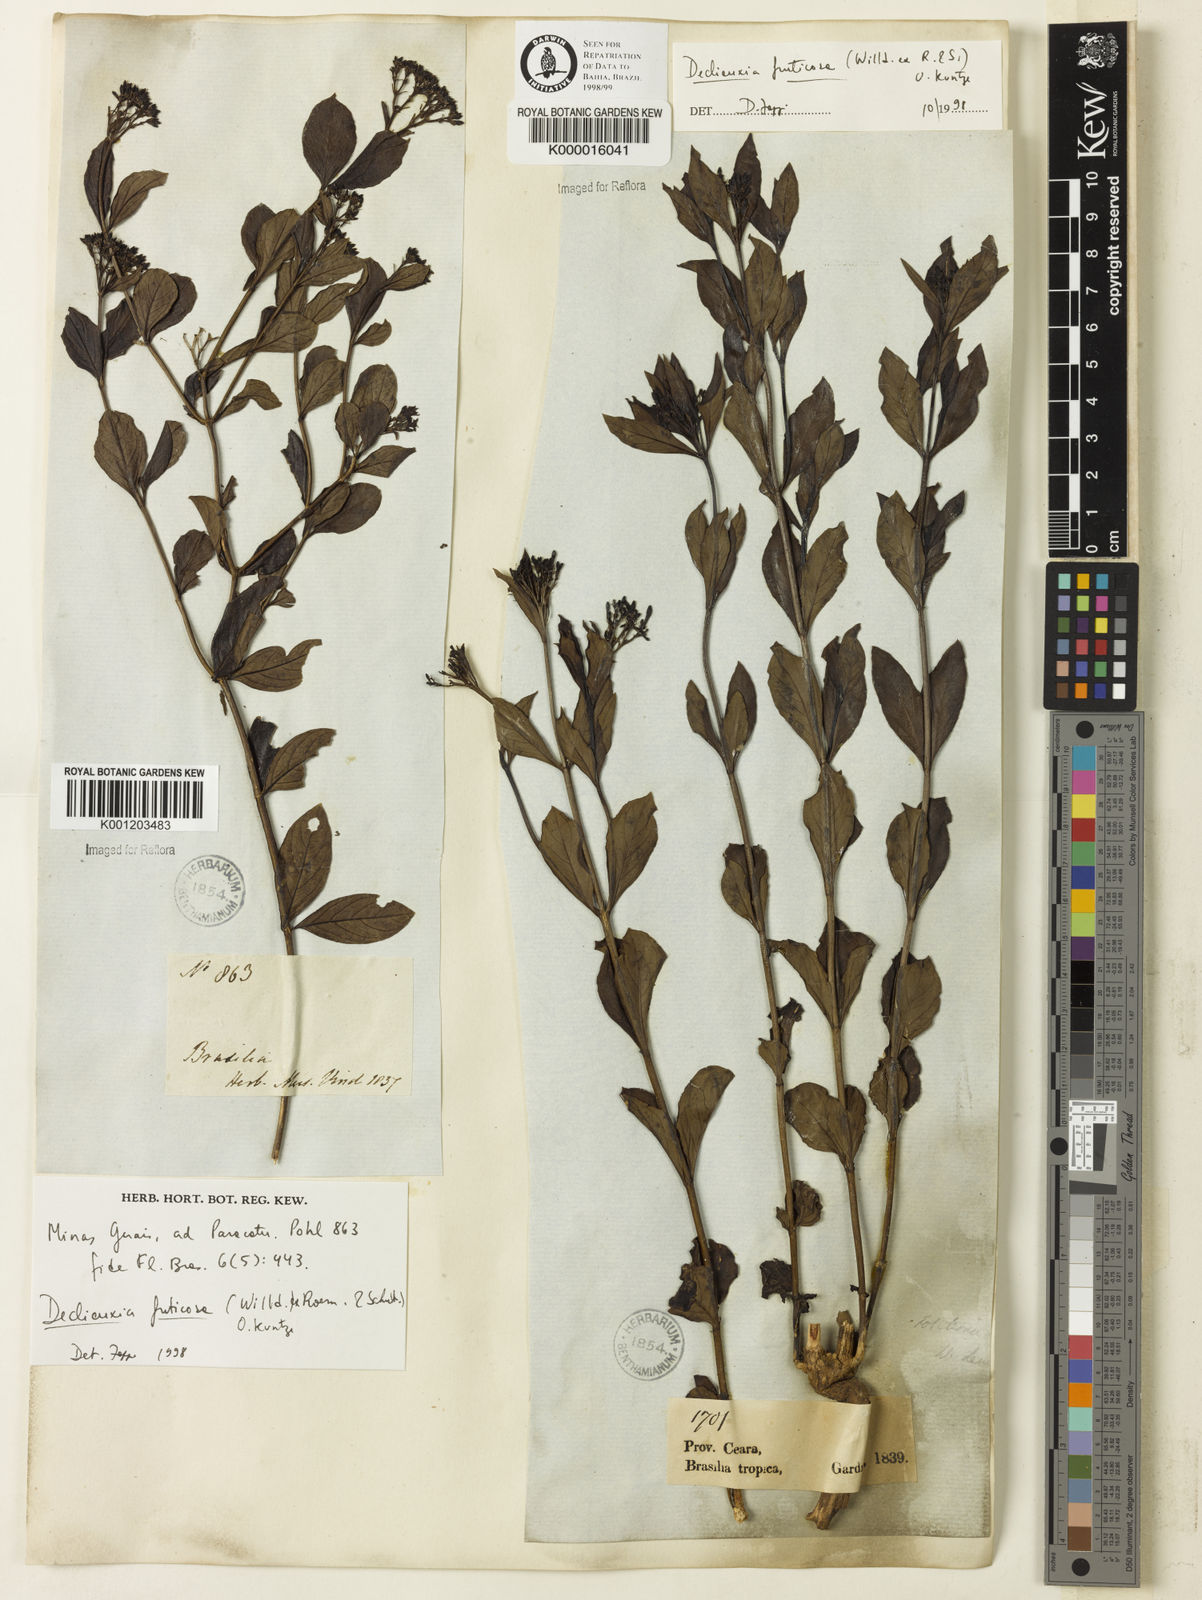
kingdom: Plantae
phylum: Tracheophyta
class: Magnoliopsida
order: Gentianales
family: Rubiaceae
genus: Declieuxia
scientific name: Declieuxia fruticosa
